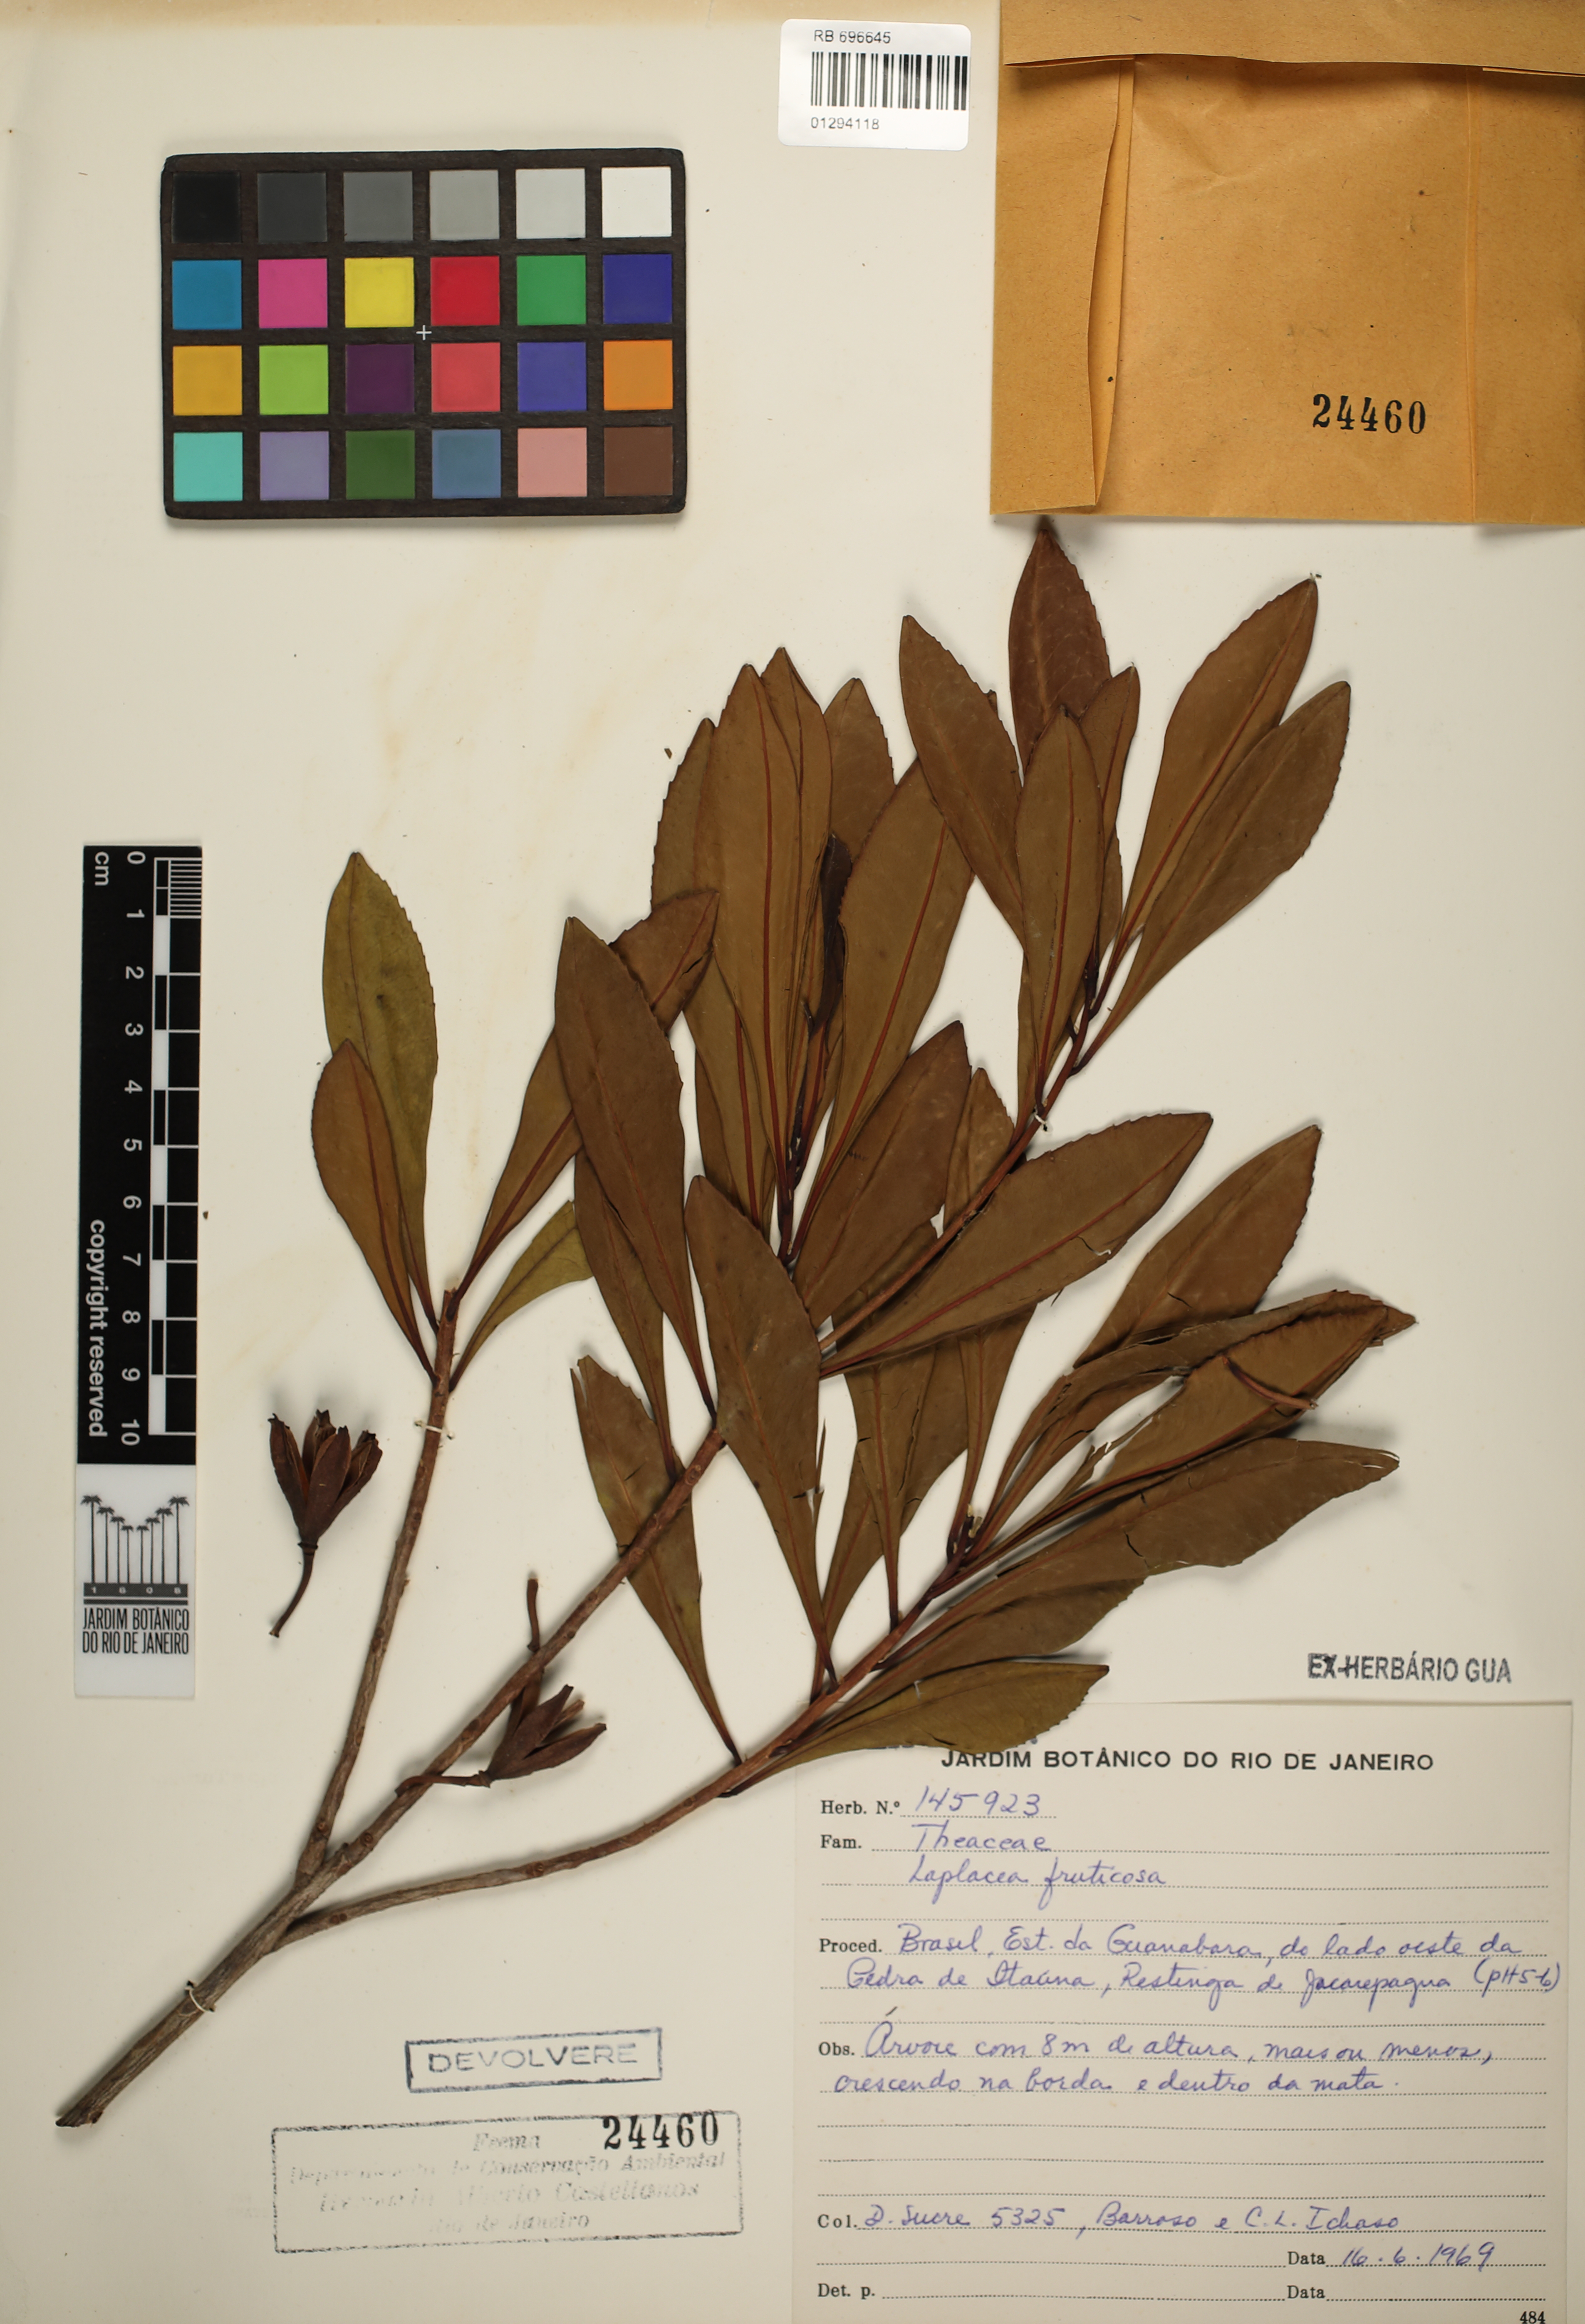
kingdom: Plantae
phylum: Tracheophyta
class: Magnoliopsida
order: Ericales
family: Theaceae
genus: Gordonia
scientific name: Gordonia fruticosa
